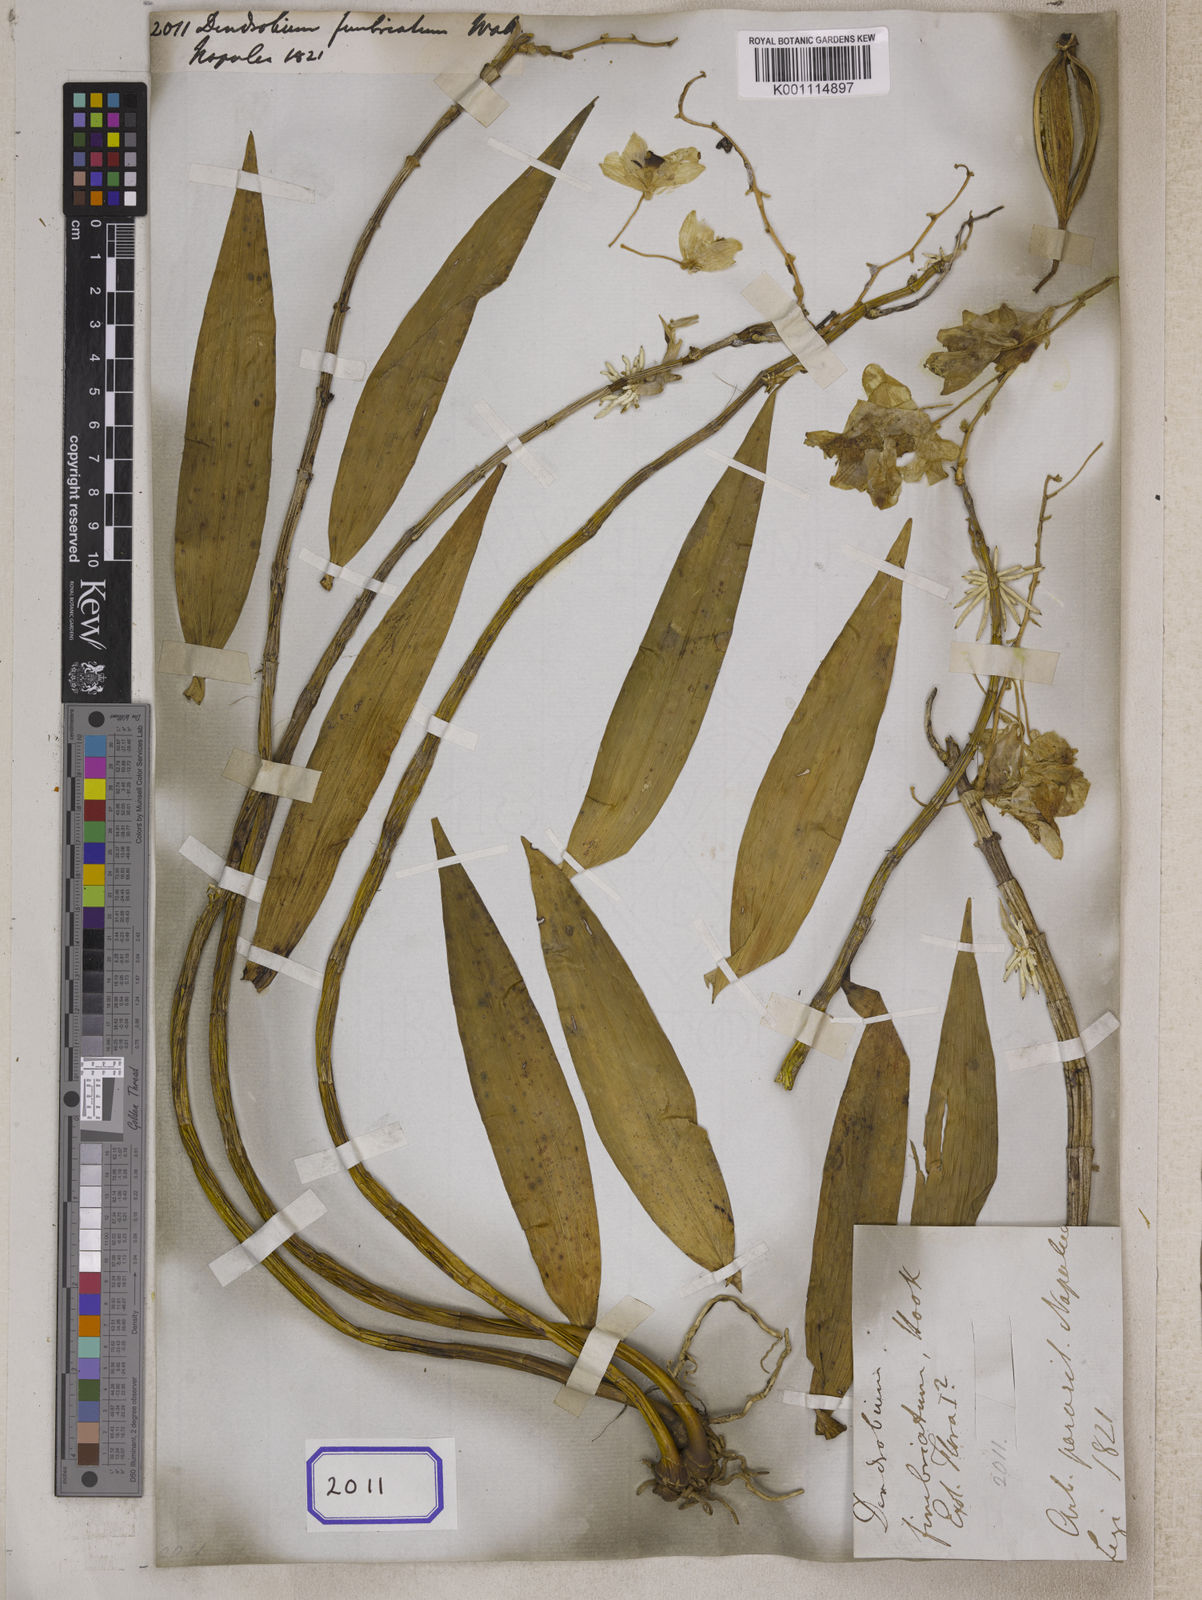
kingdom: Plantae
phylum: Tracheophyta
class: Liliopsida
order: Asparagales
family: Orchidaceae
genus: Dendrobium
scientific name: Dendrobium
